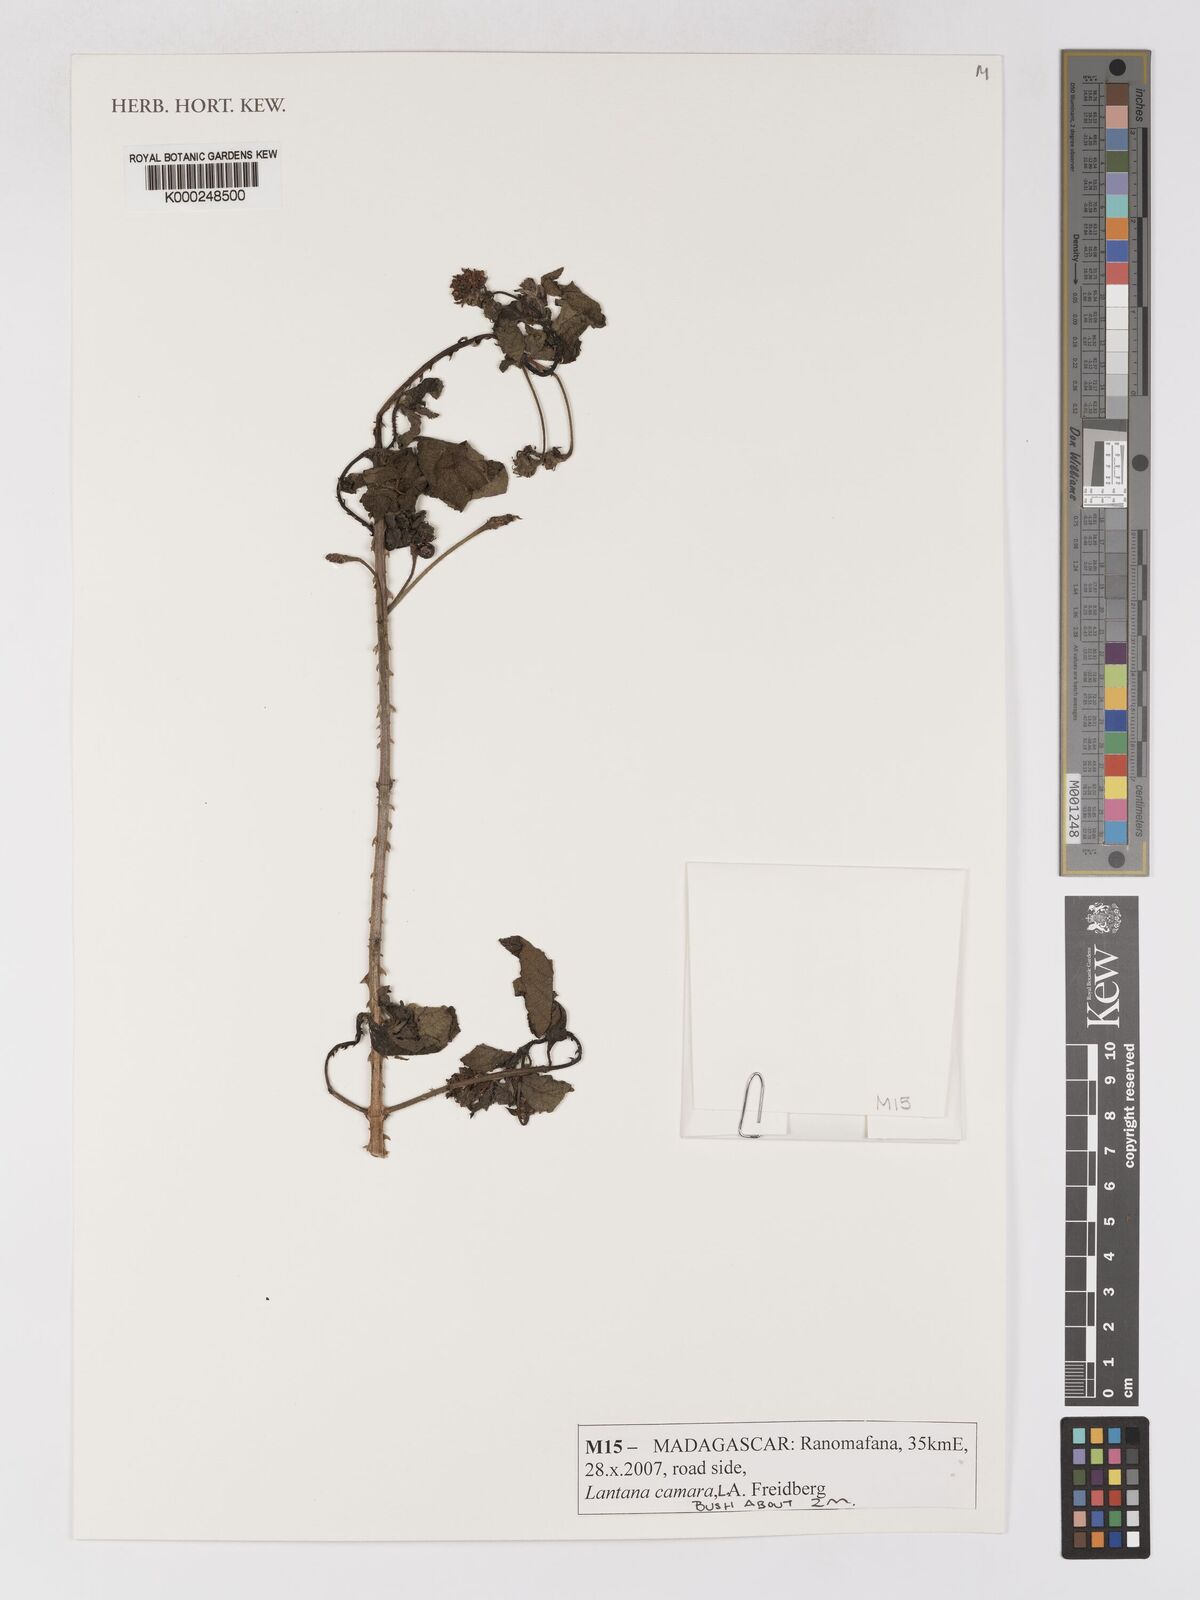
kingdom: Plantae
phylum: Tracheophyta
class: Magnoliopsida
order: Lamiales
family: Verbenaceae
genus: Lantana
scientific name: Lantana camara
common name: Lantana
